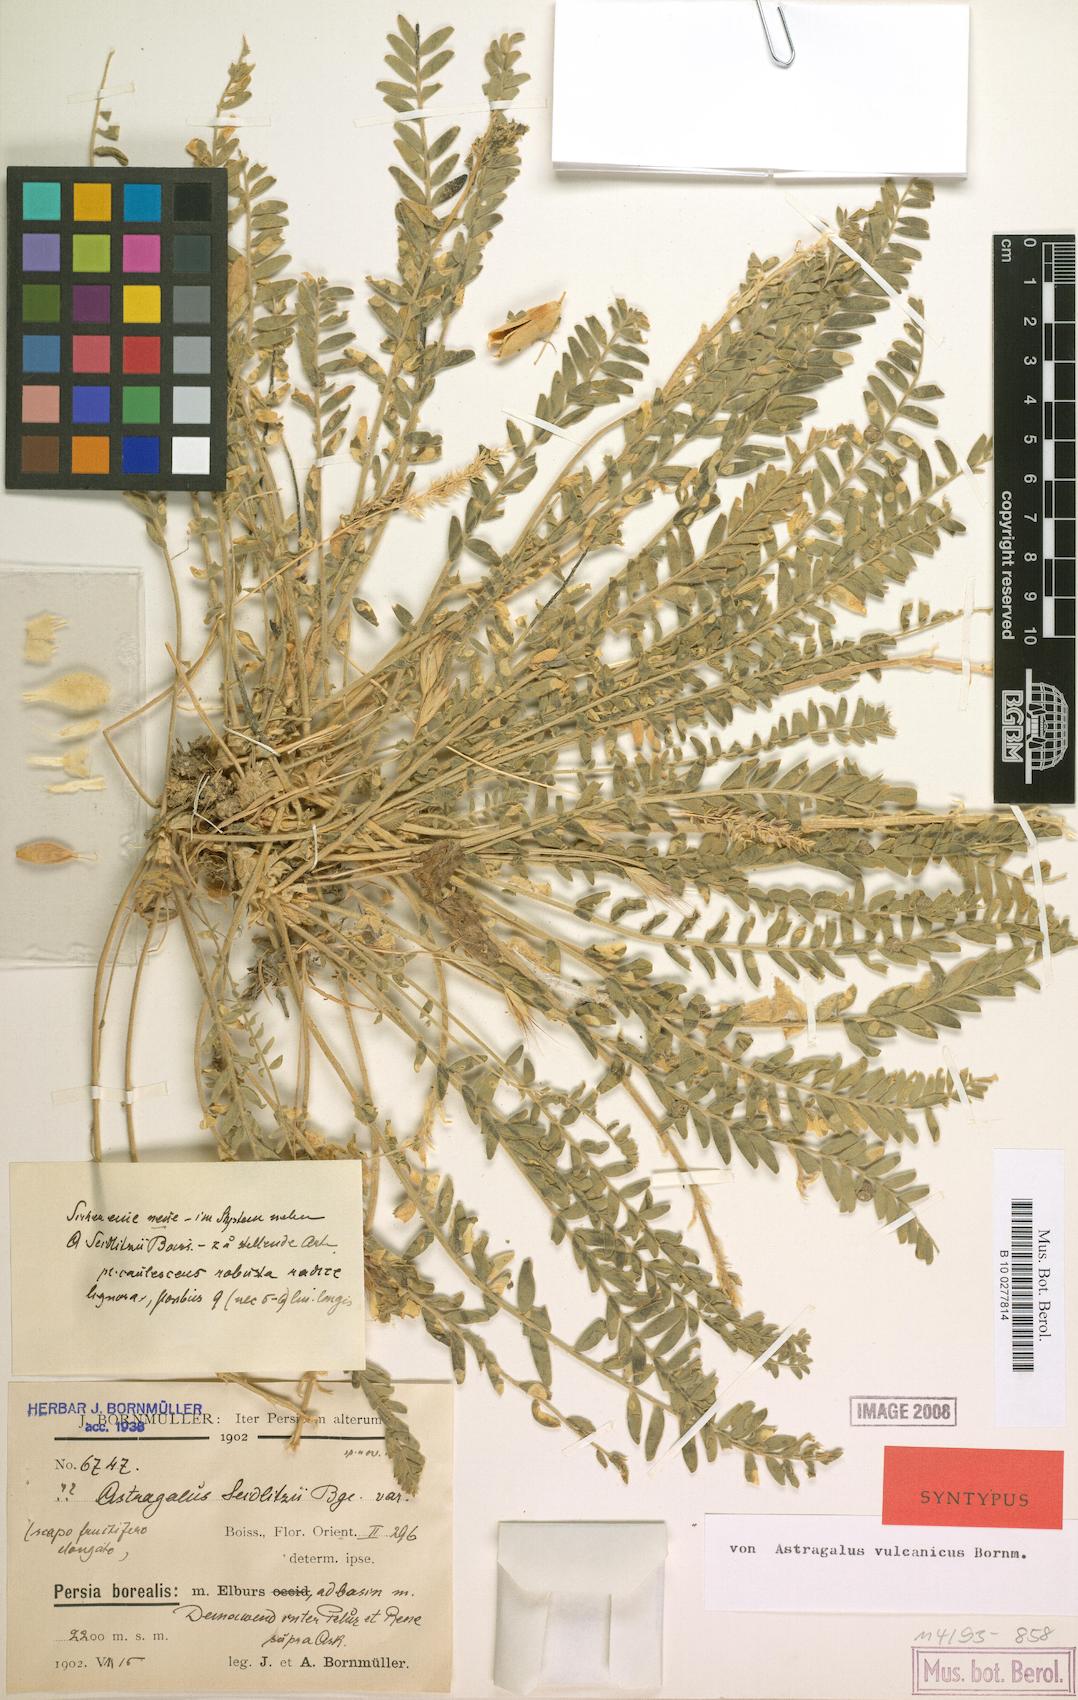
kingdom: Plantae
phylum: Tracheophyta
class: Magnoliopsida
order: Fabales
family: Fabaceae
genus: Astragalus
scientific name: Astragalus vulcanicus
